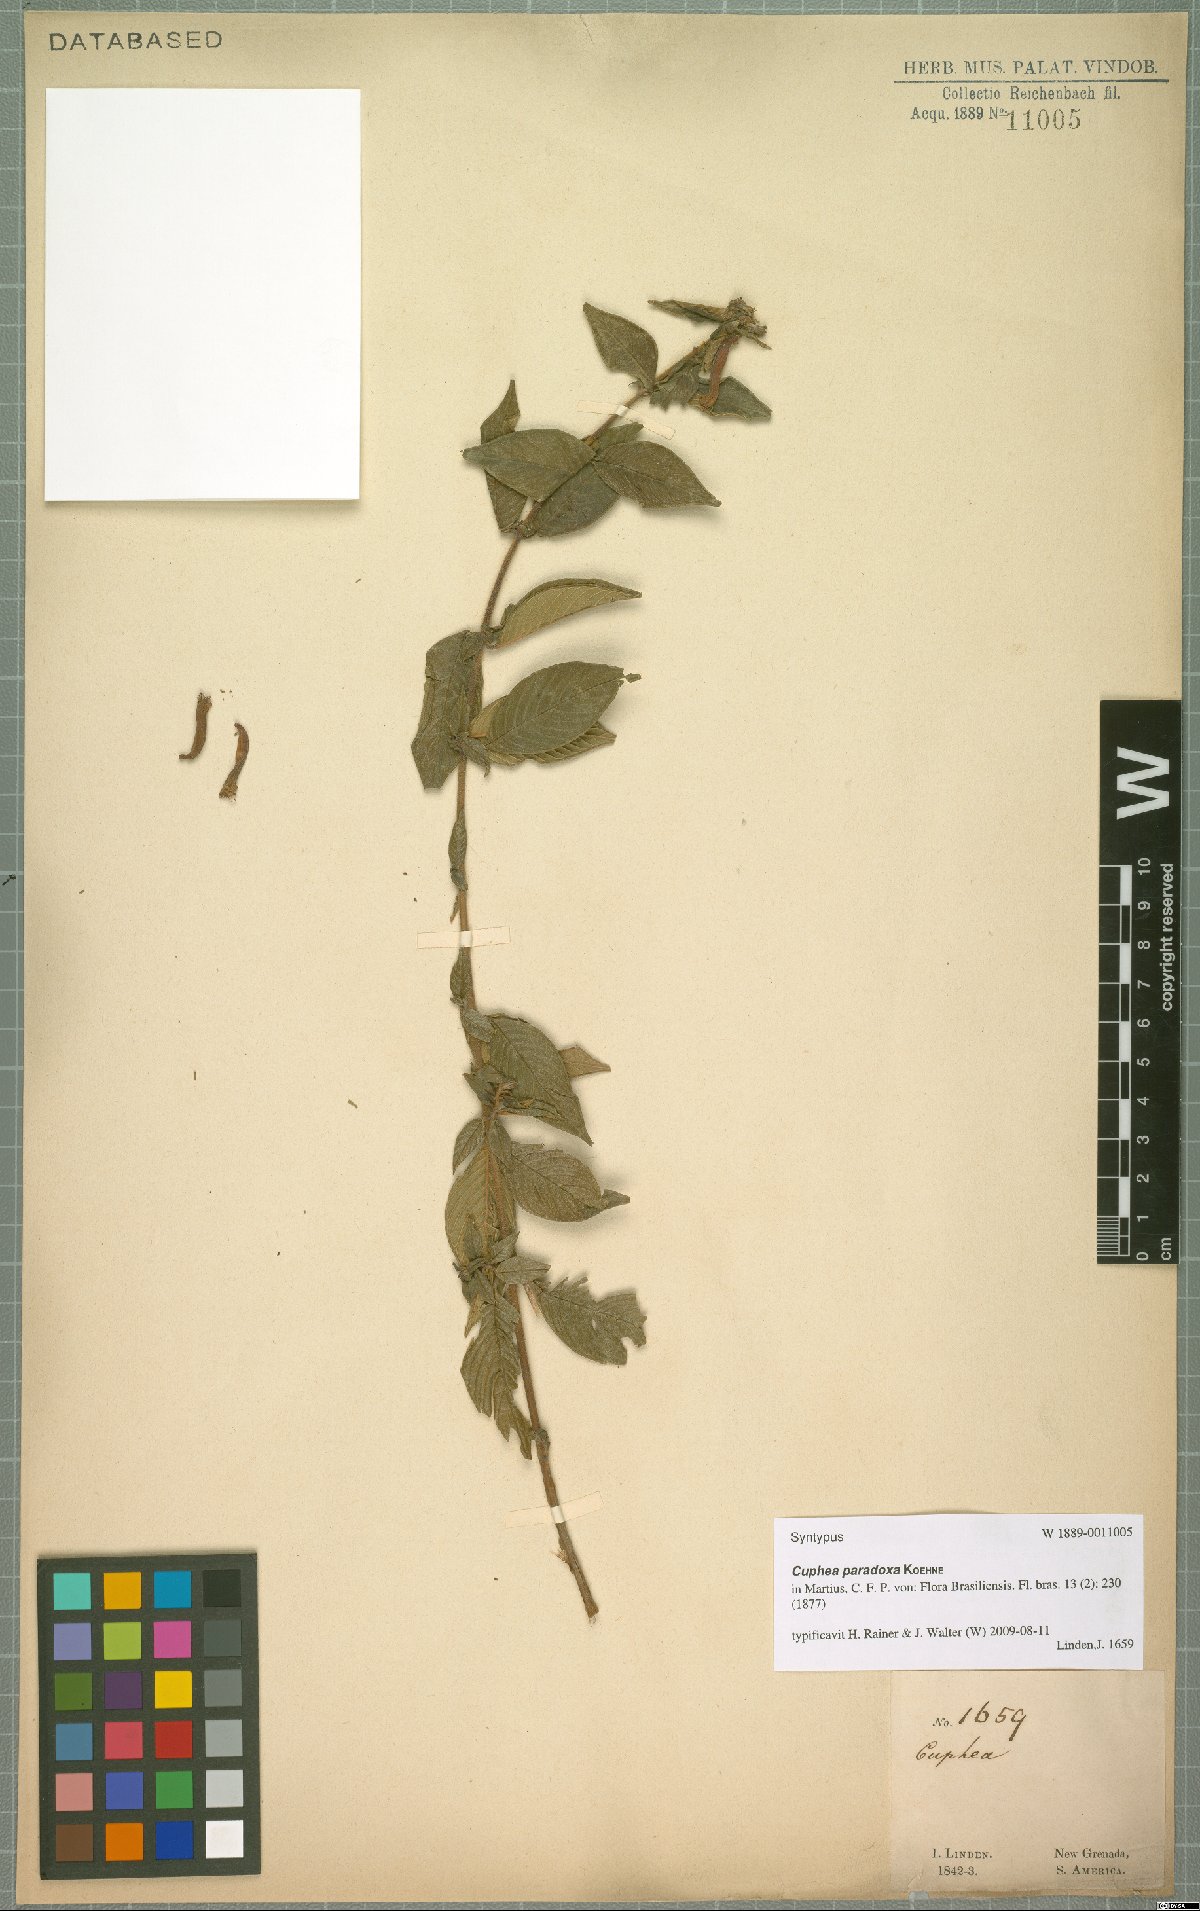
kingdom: Plantae
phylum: Tracheophyta
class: Magnoliopsida
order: Myrtales
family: Lythraceae
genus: Cuphea
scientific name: Cuphea paradoxa
